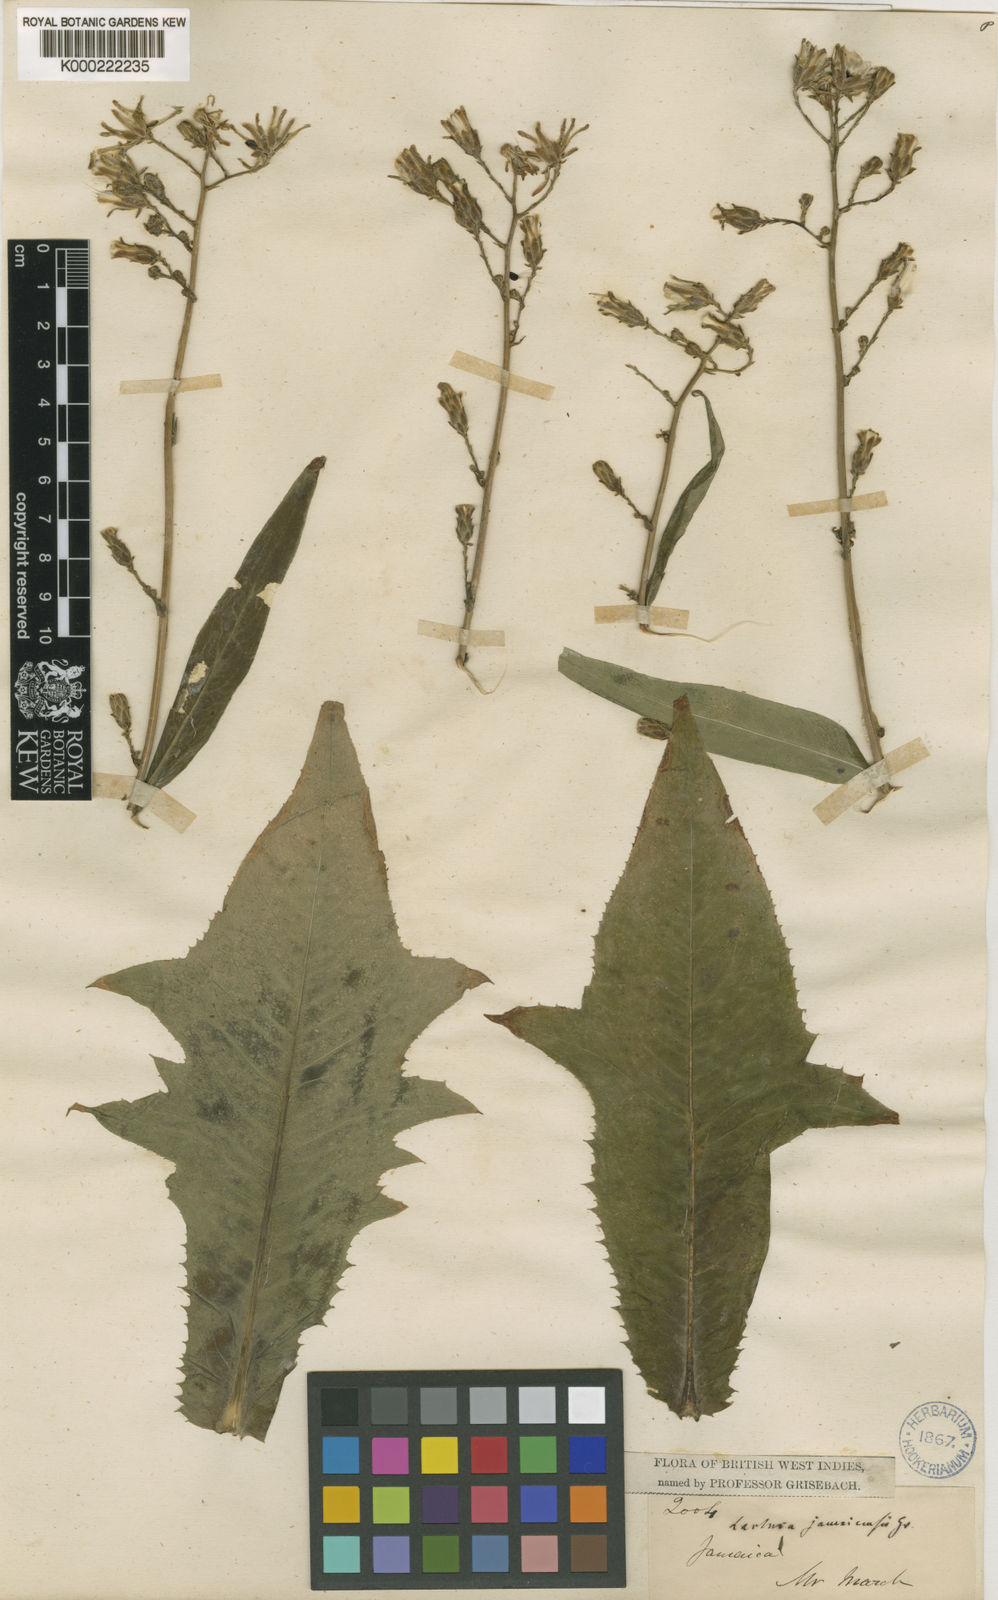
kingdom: Plantae
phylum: Tracheophyta
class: Magnoliopsida
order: Asterales
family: Asteraceae
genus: Lactuca
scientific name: Lactuca indica
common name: Wild lettuce
